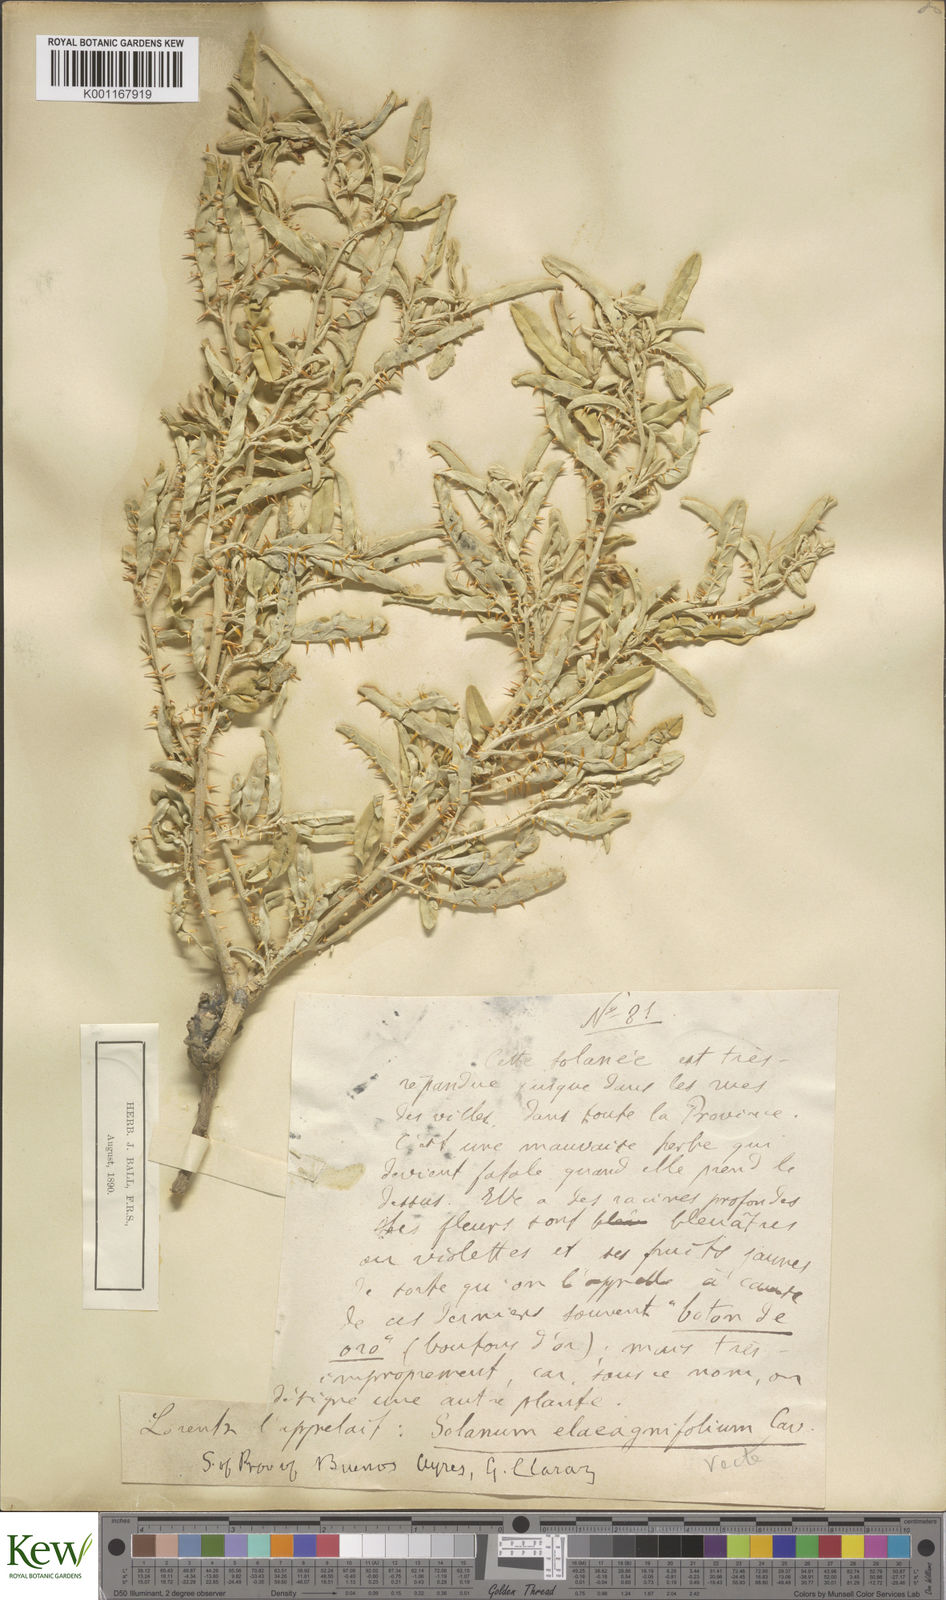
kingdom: Plantae
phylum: Tracheophyta
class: Magnoliopsida
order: Solanales
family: Solanaceae
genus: Solanum
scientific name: Solanum elaeagnifolium
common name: Silverleaf nightshade
